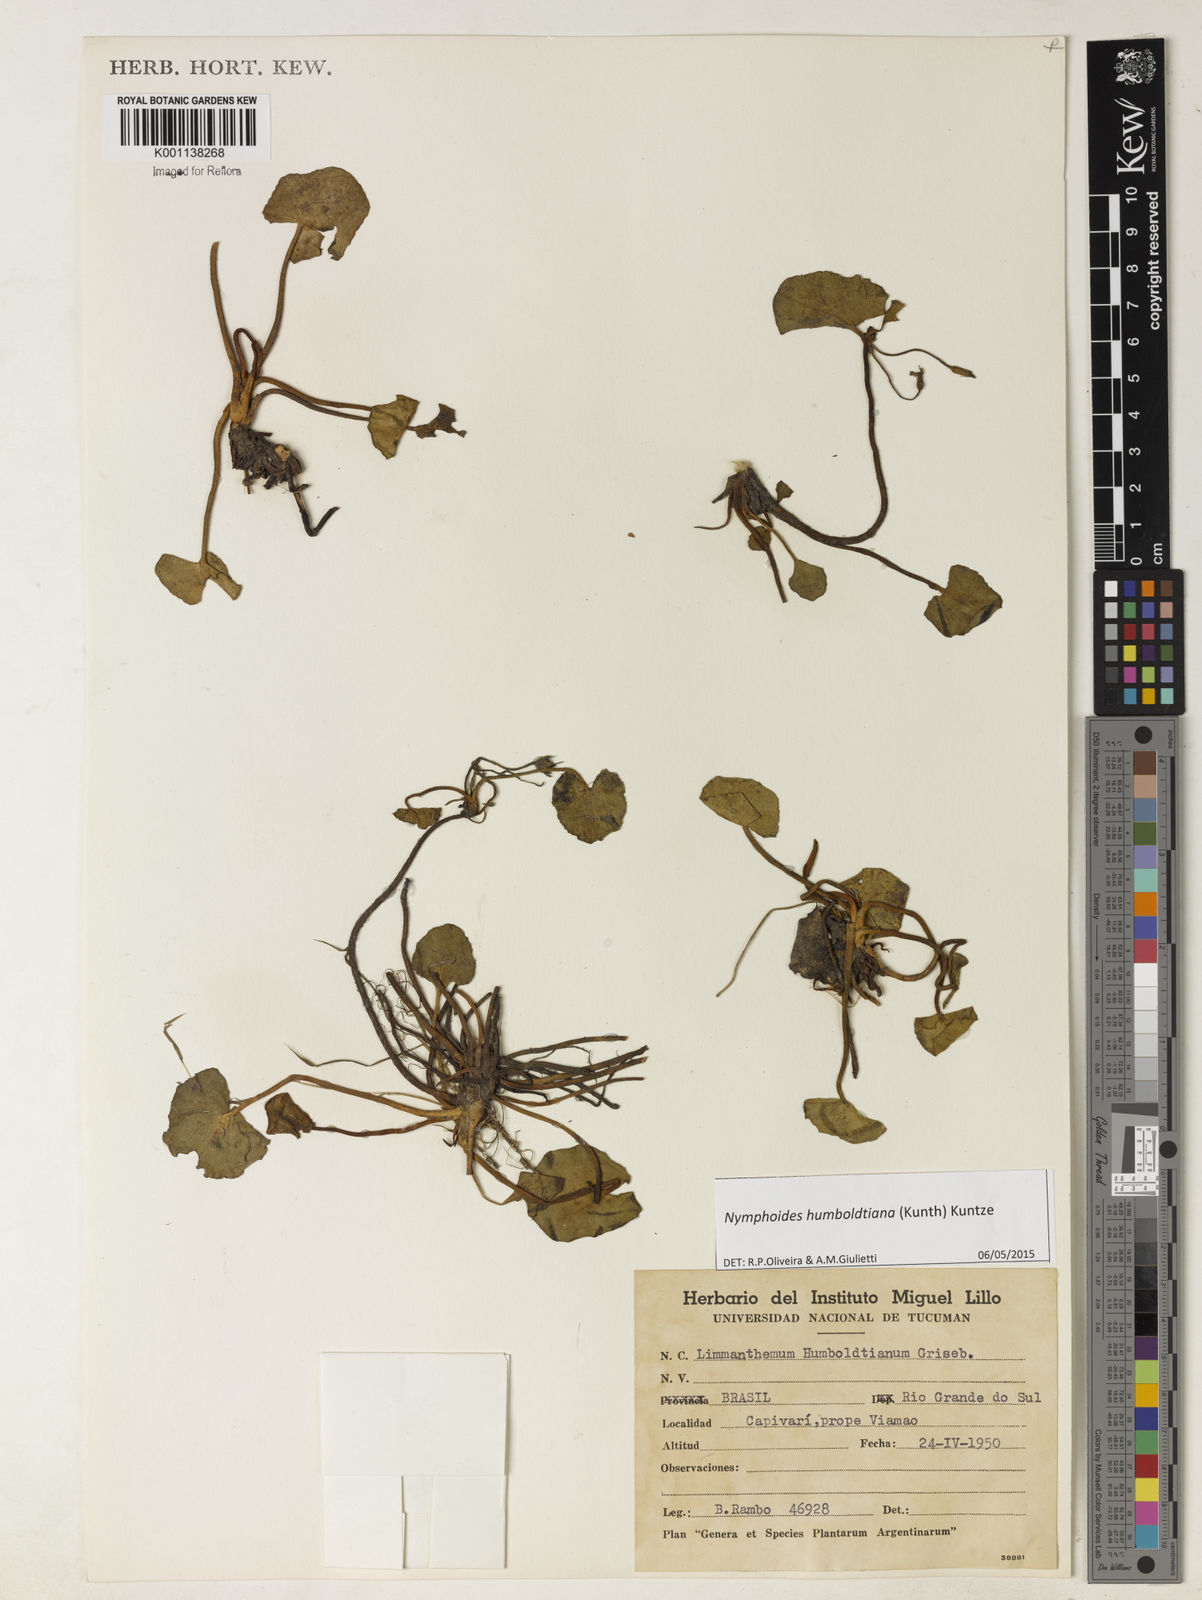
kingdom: Plantae
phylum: Tracheophyta
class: Magnoliopsida
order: Asterales
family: Menyanthaceae
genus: Nymphoides
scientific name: Nymphoides humboldtiana
